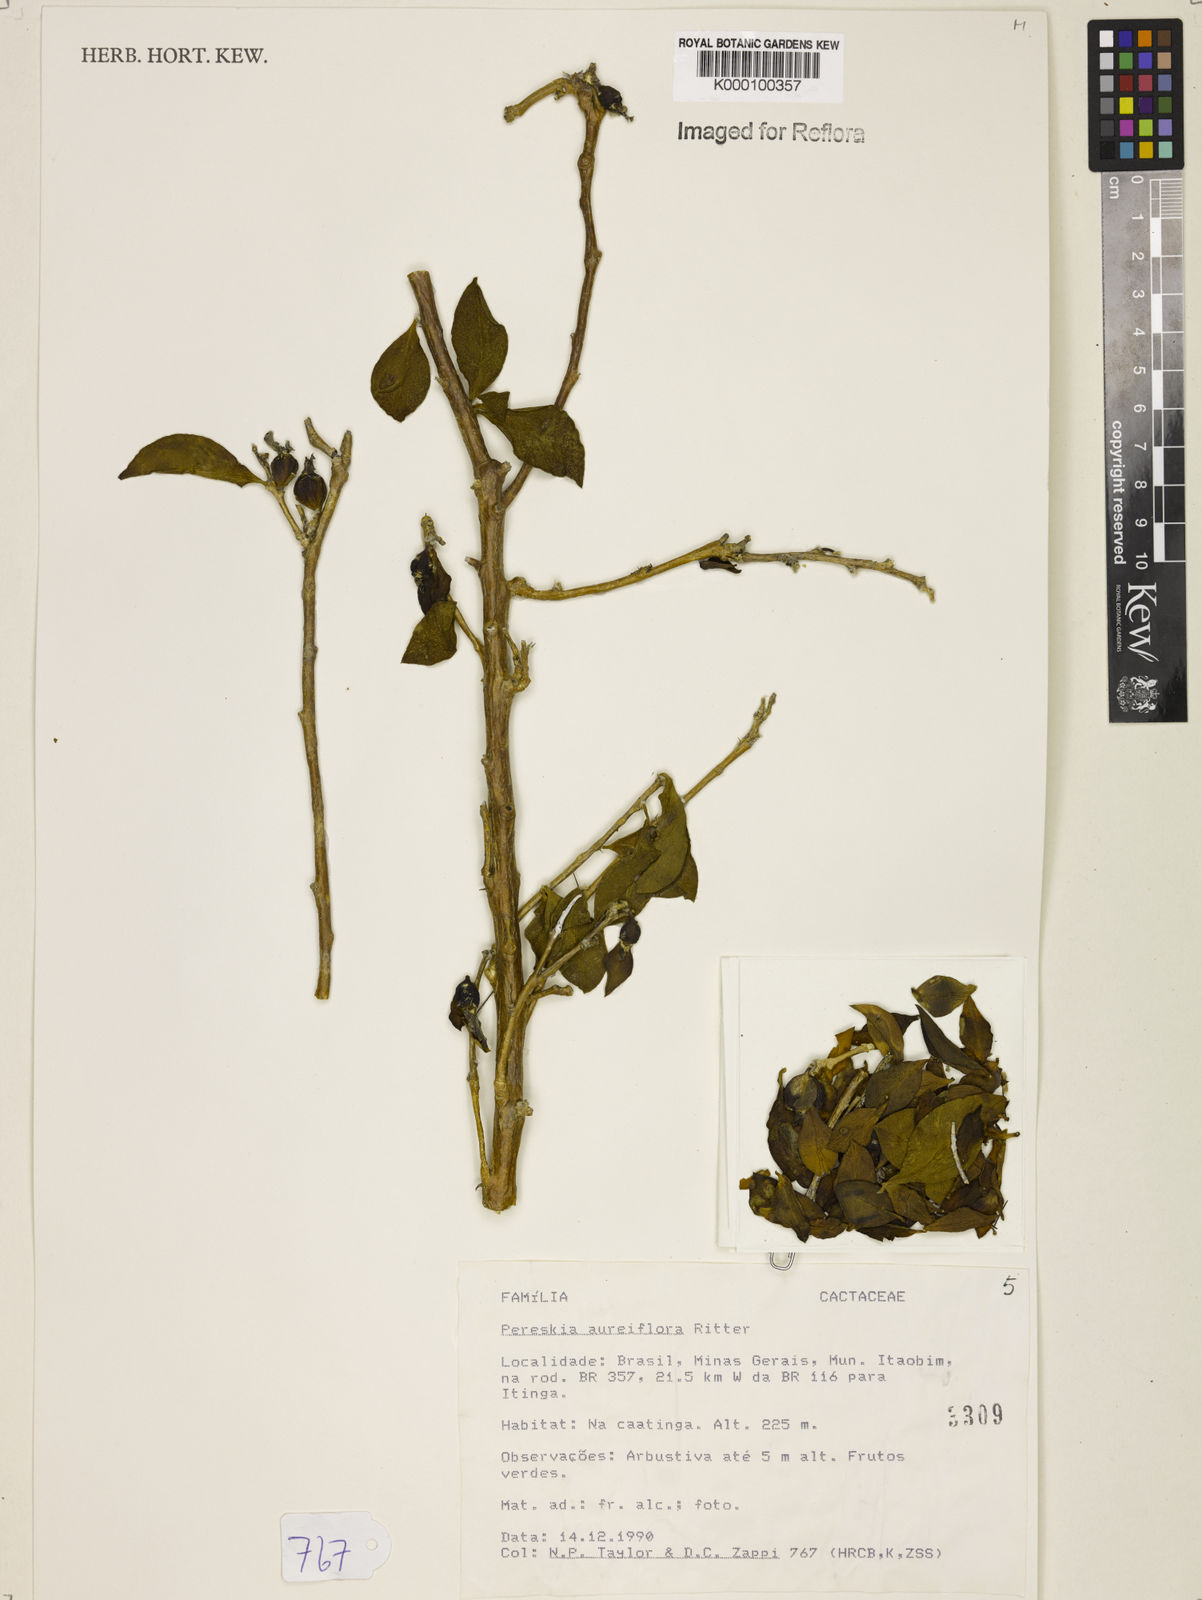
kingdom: Plantae
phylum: Tracheophyta
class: Magnoliopsida
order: Caryophyllales
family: Cactaceae
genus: Leuenbergeria
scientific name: Leuenbergeria aureiflora
